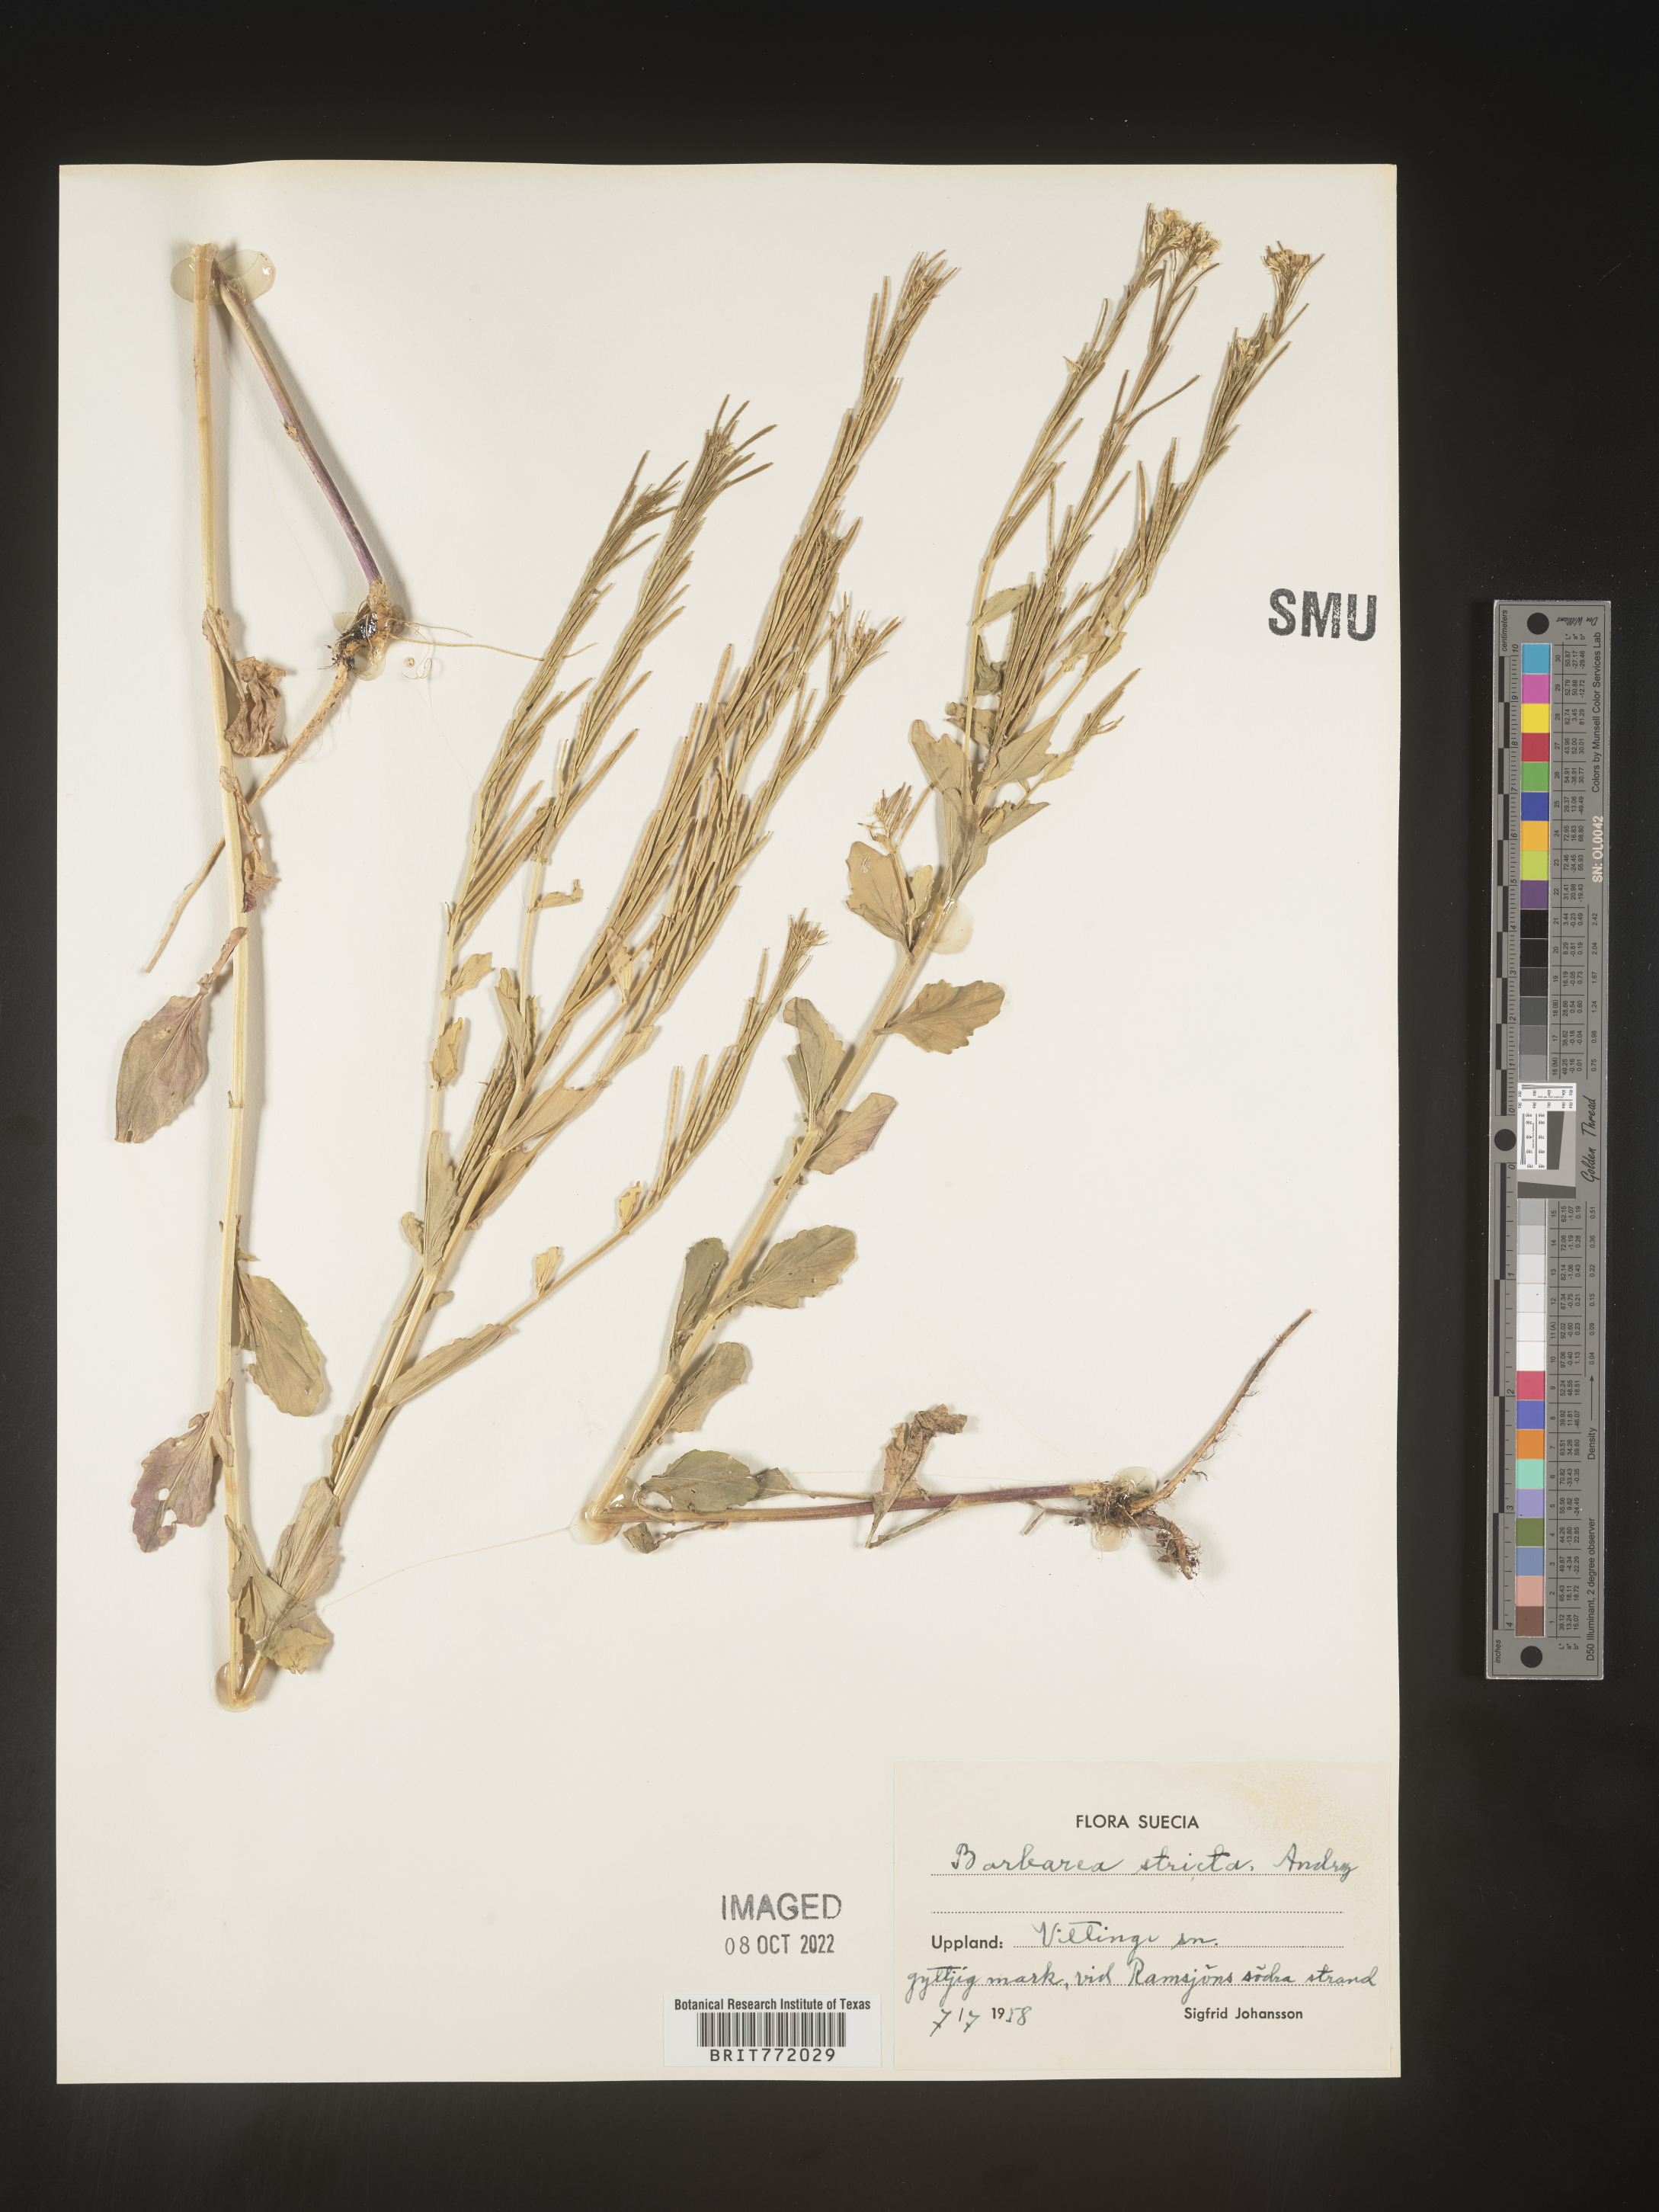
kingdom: Plantae
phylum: Tracheophyta
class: Magnoliopsida
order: Brassicales
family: Brassicaceae
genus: Barbarea
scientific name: Barbarea
